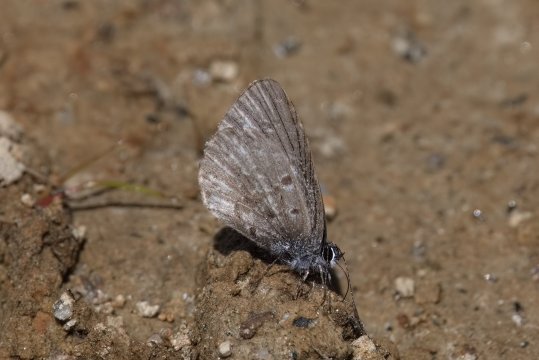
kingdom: Animalia
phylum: Arthropoda
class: Insecta
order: Lepidoptera
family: Lycaenidae
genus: Celastrina
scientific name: Celastrina lucia
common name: Northern Spring Azure
